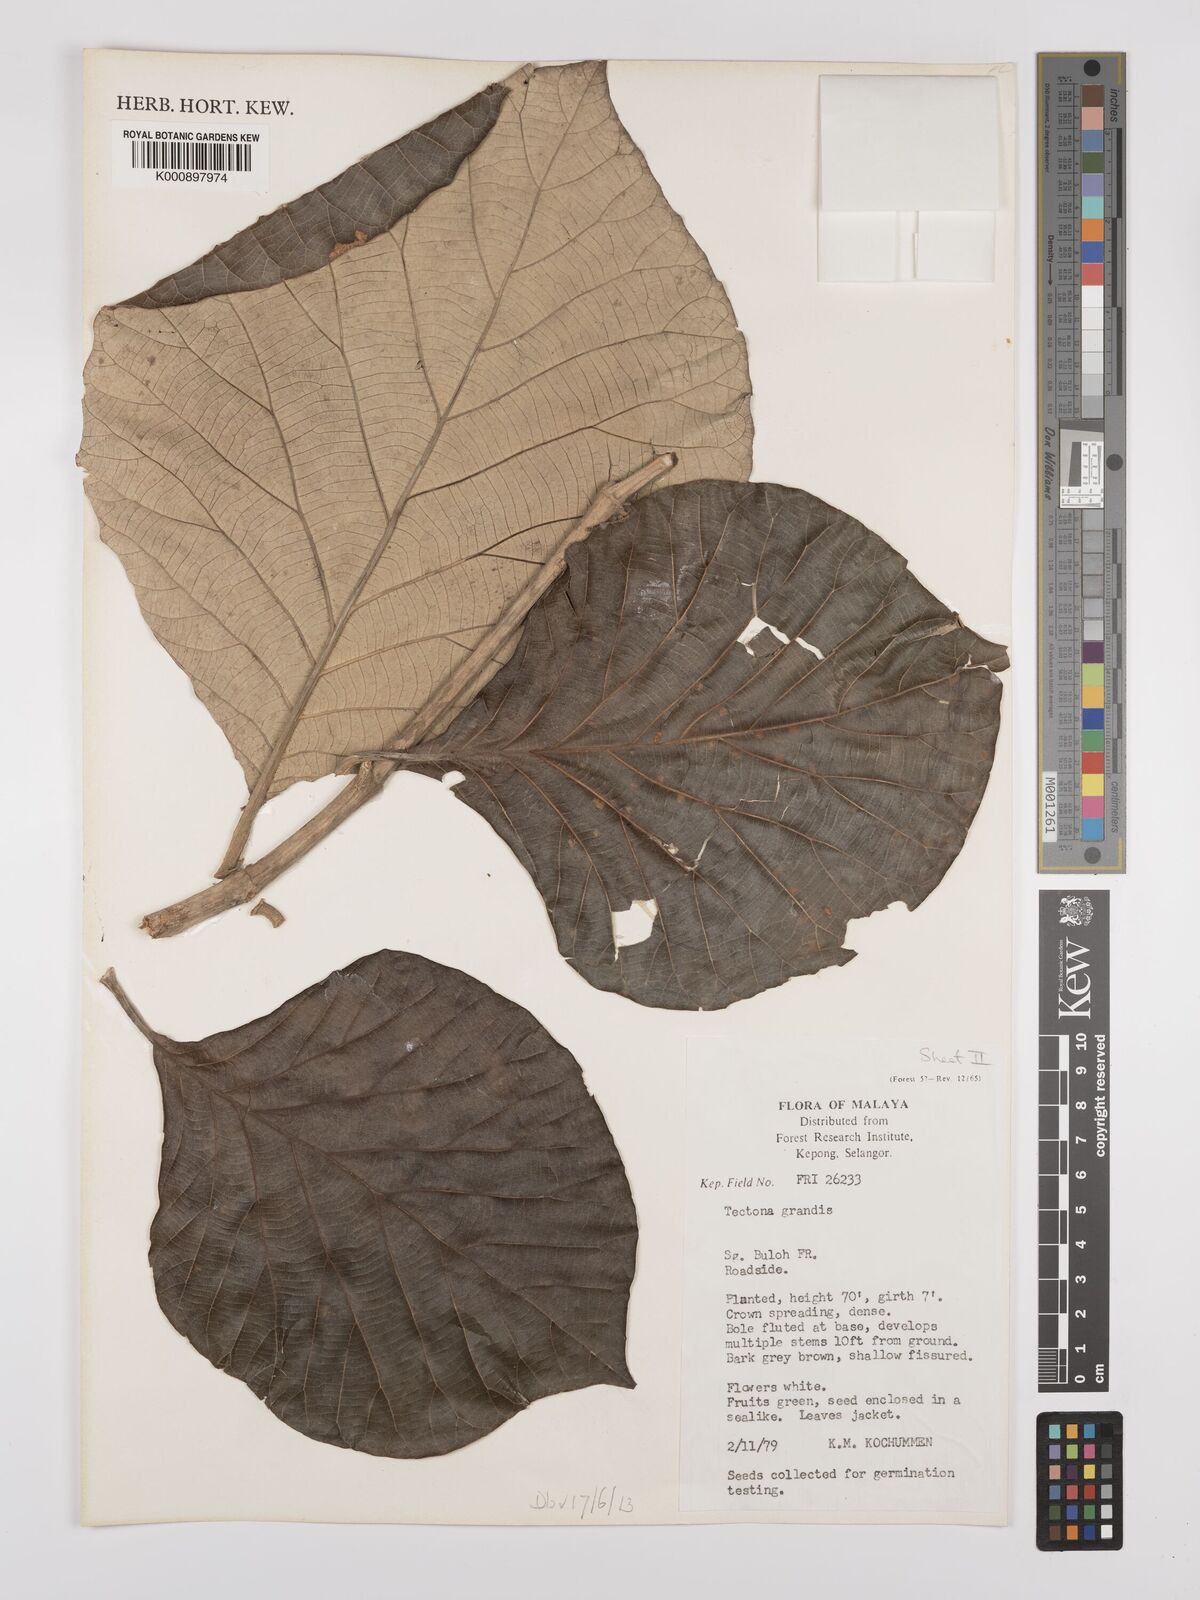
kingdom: Plantae
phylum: Tracheophyta
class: Magnoliopsida
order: Lamiales
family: Lamiaceae
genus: Tectona
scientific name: Tectona grandis
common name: Teak
